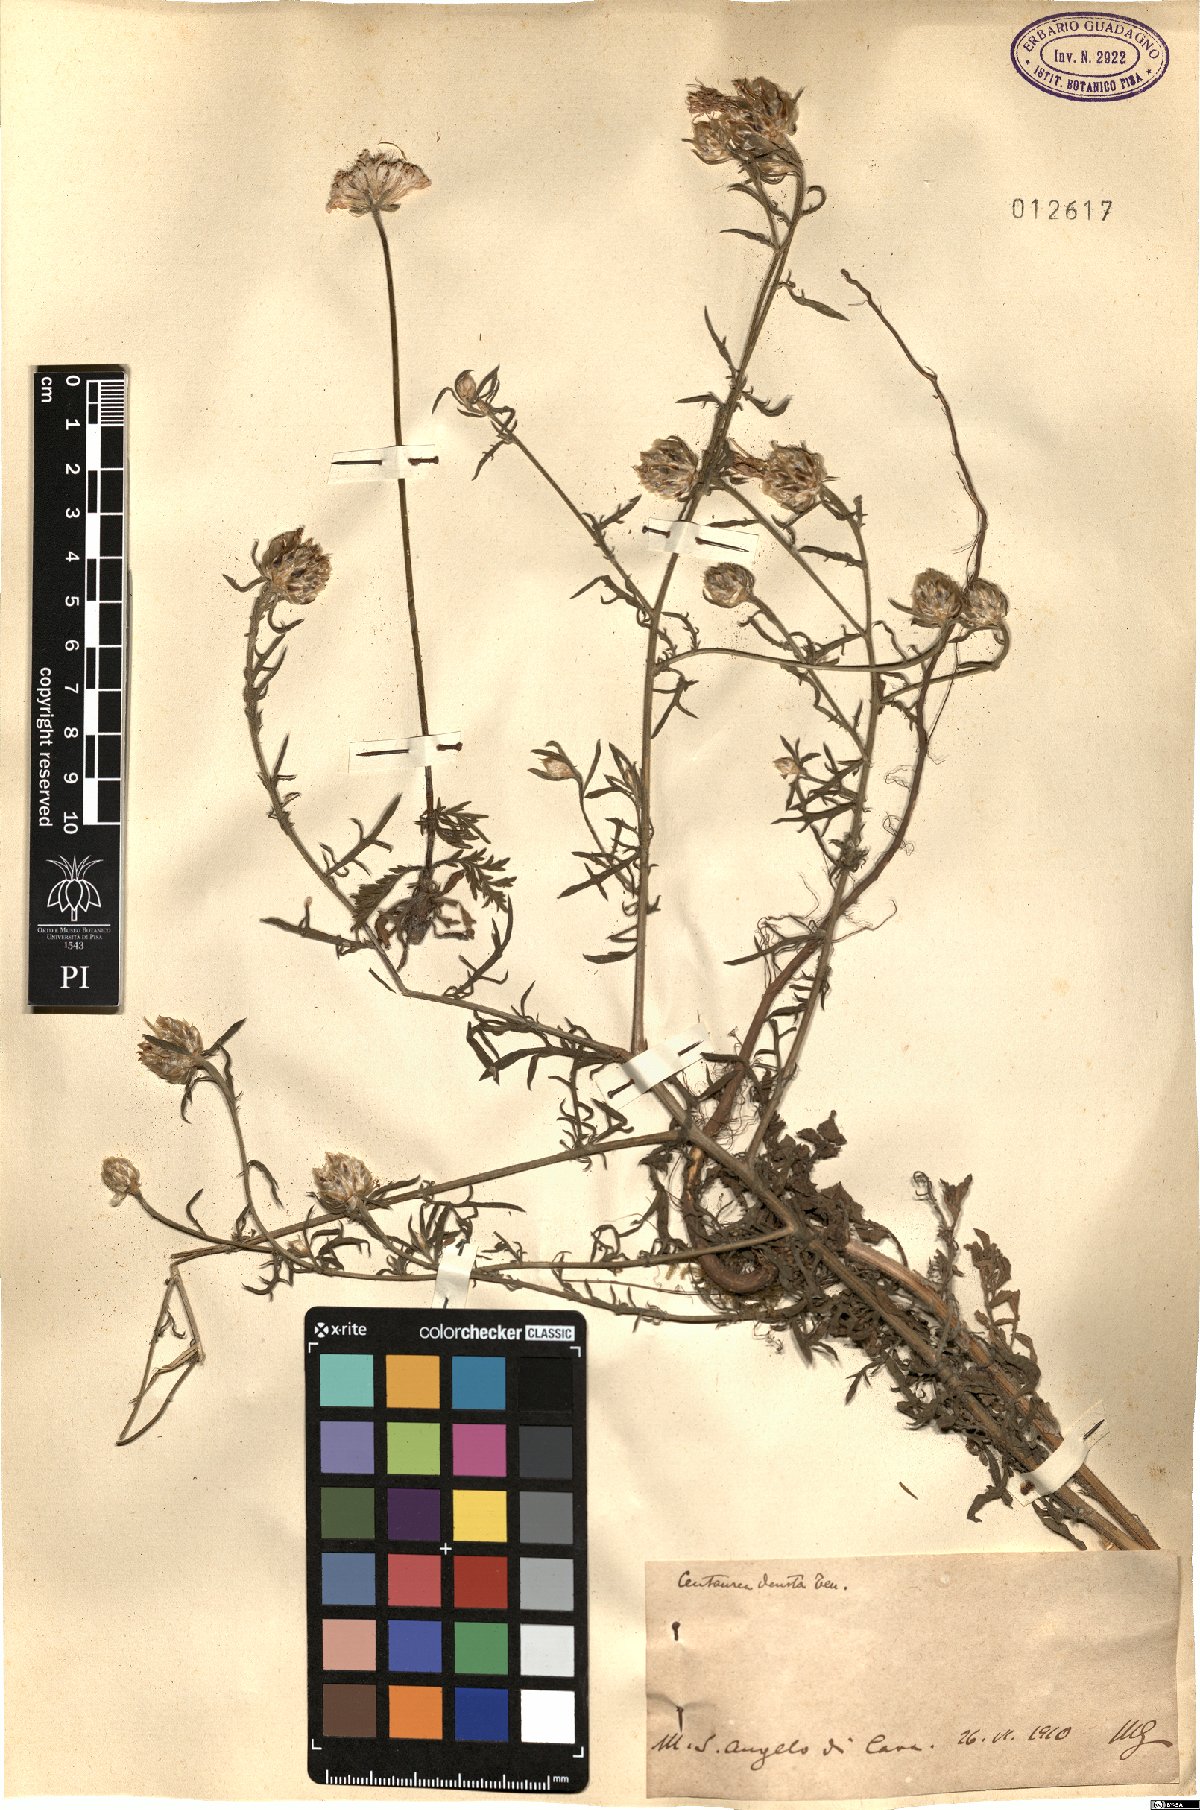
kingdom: Plantae
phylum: Tracheophyta
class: Magnoliopsida
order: Asterales
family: Asteraceae
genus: Centaurea
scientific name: Centaurea deusta
